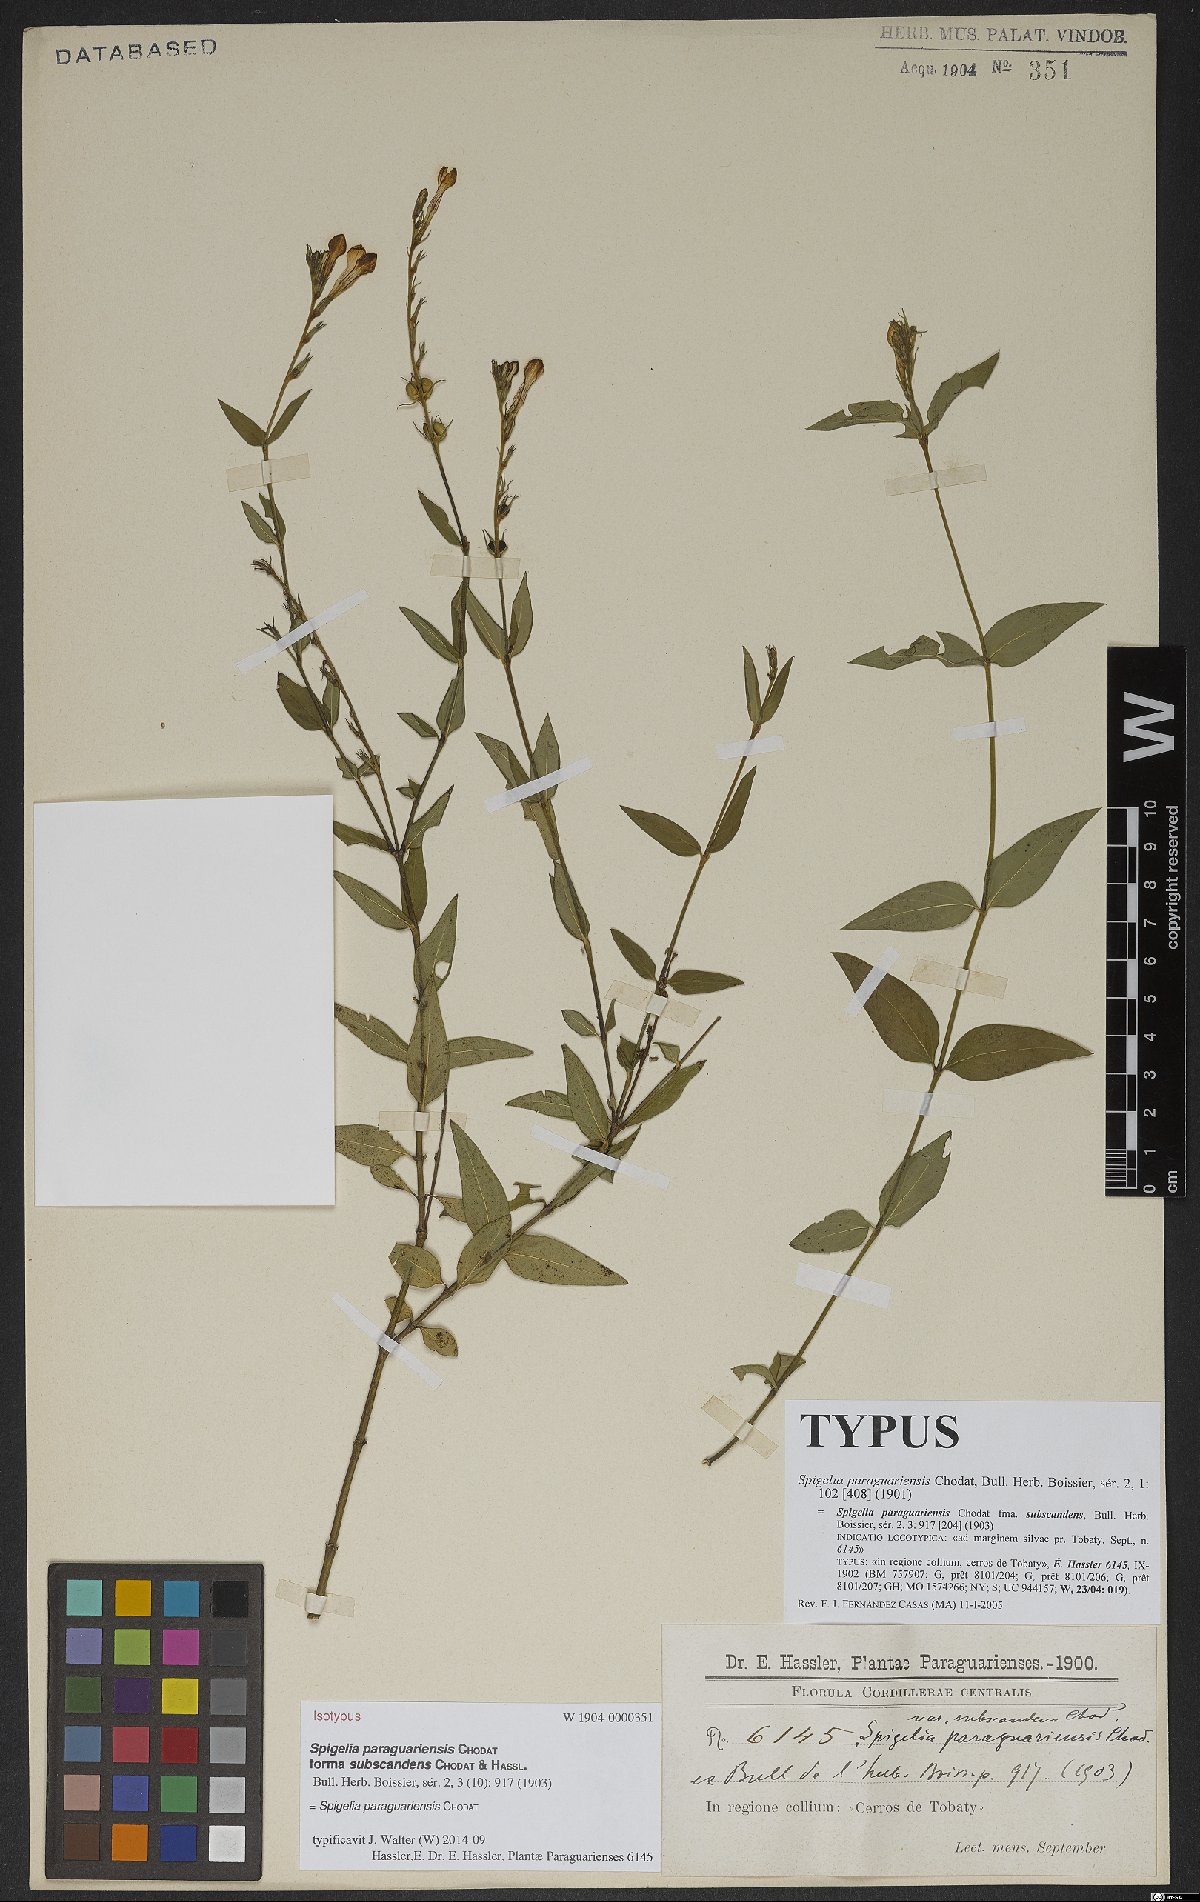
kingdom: Plantae
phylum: Tracheophyta
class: Magnoliopsida
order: Gentianales
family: Loganiaceae
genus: Spigelia
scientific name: Spigelia paraguariensis
